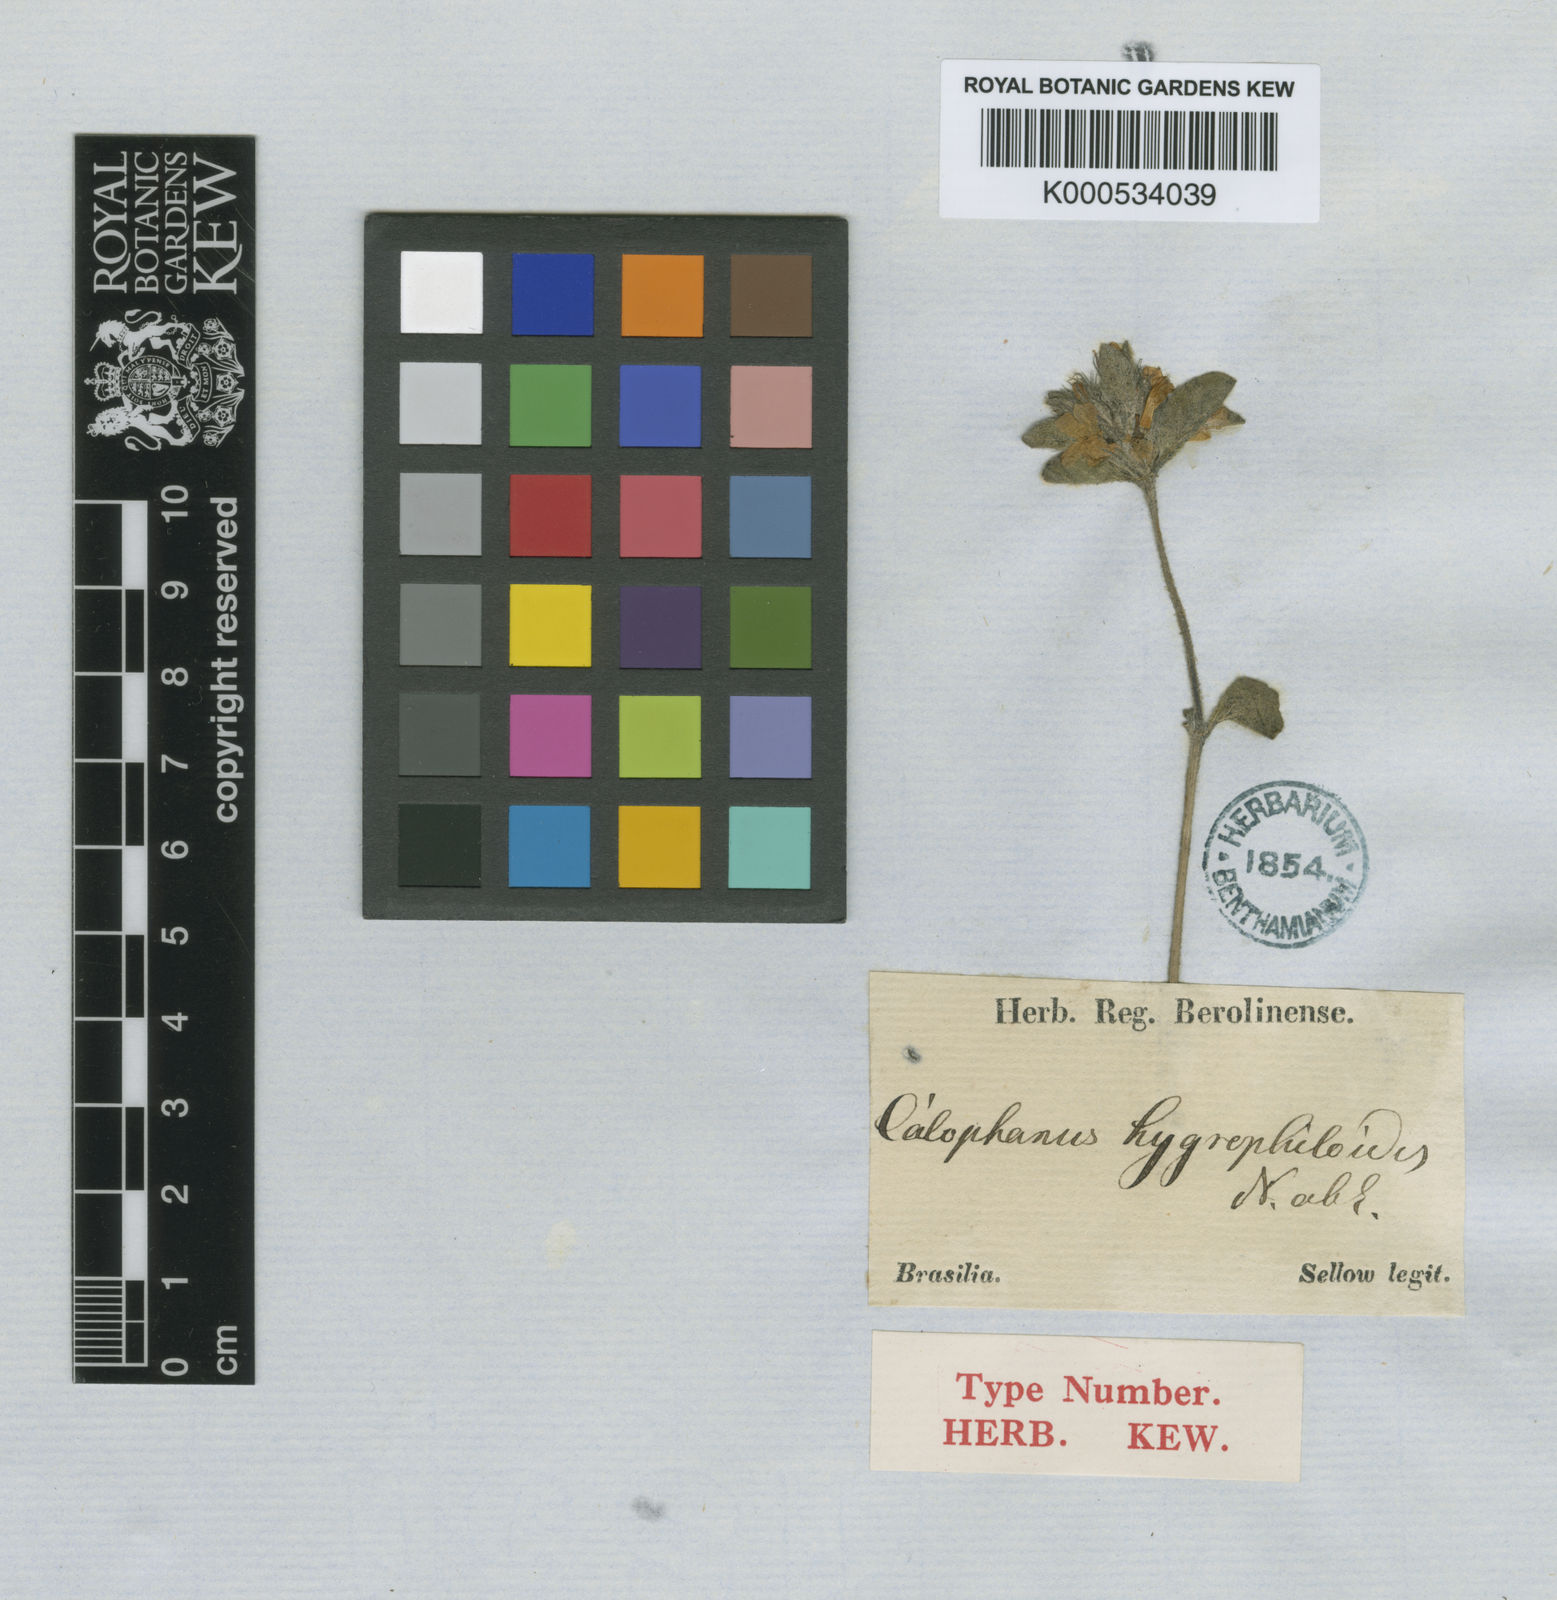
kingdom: Plantae
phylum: Tracheophyta
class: Magnoliopsida
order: Lamiales
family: Acanthaceae
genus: Dyschoriste
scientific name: Dyschoriste
